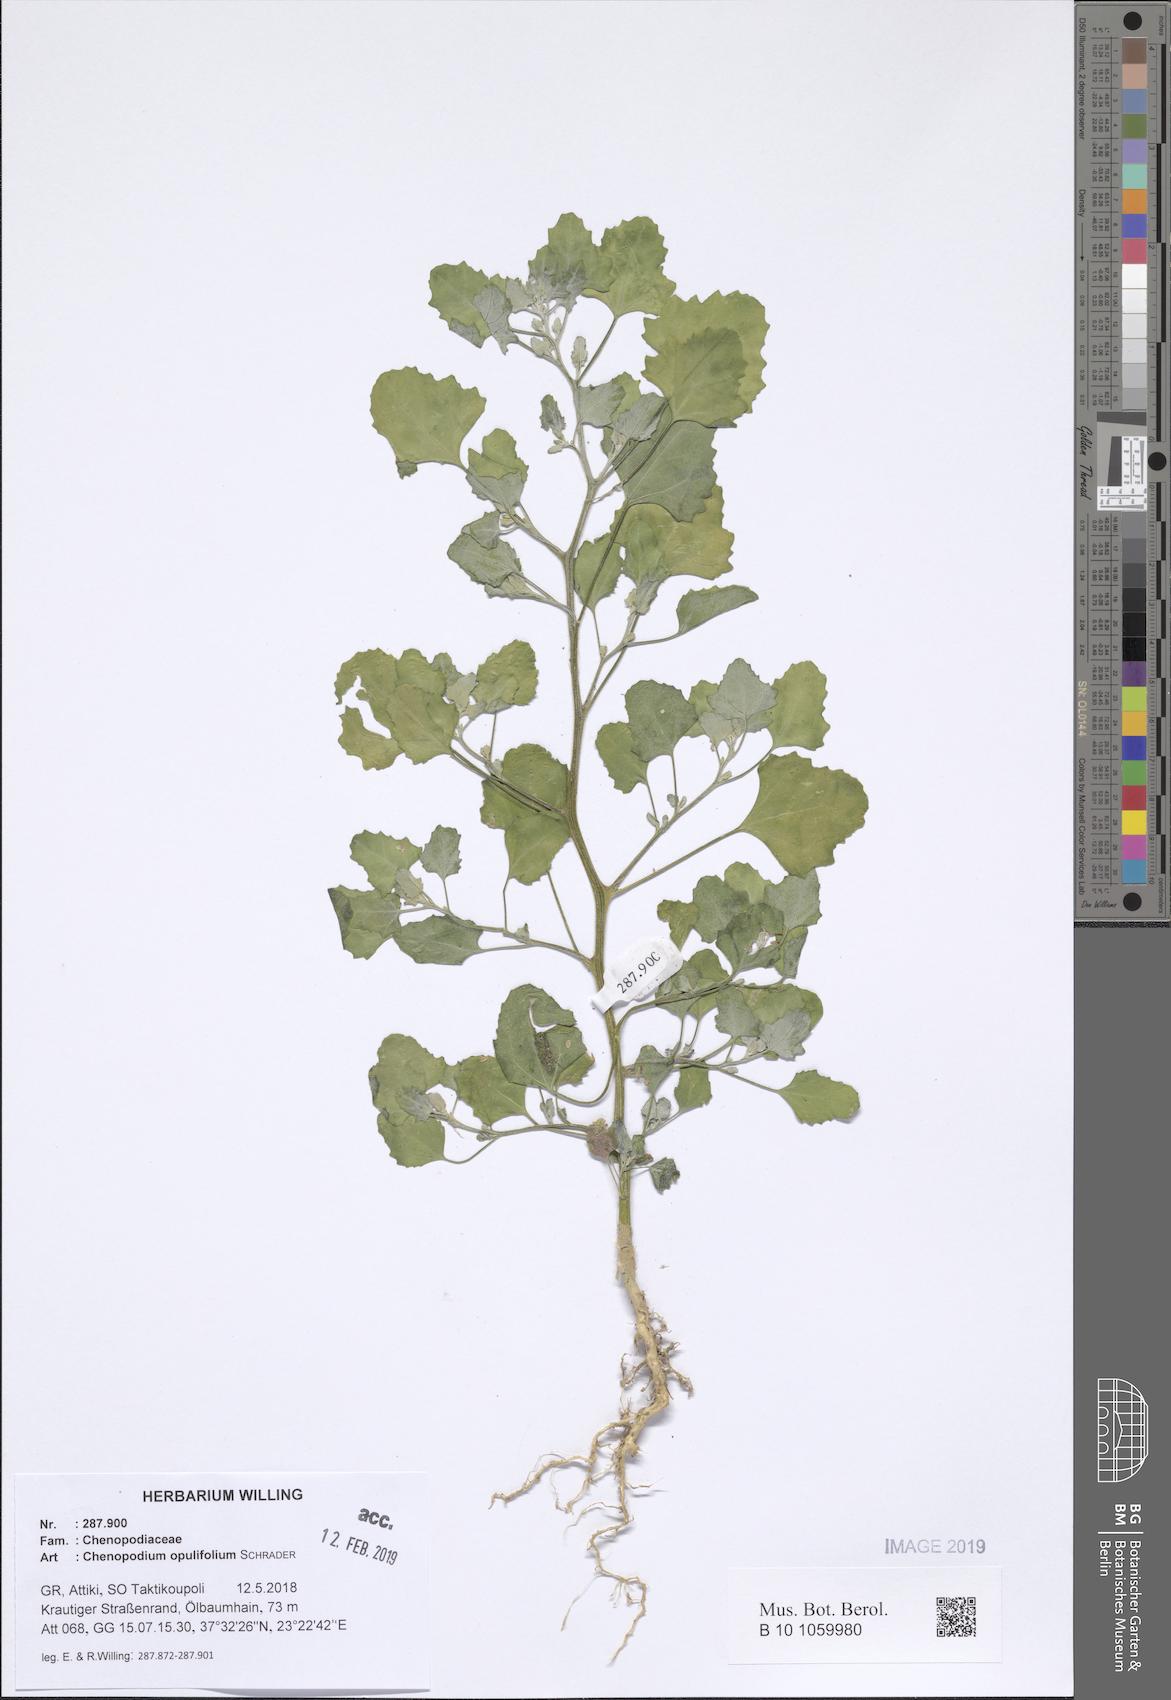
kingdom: Plantae
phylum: Tracheophyta
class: Magnoliopsida
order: Caryophyllales
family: Amaranthaceae
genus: Chenopodium
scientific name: Chenopodium opulifolium
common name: Grey goosefoot
